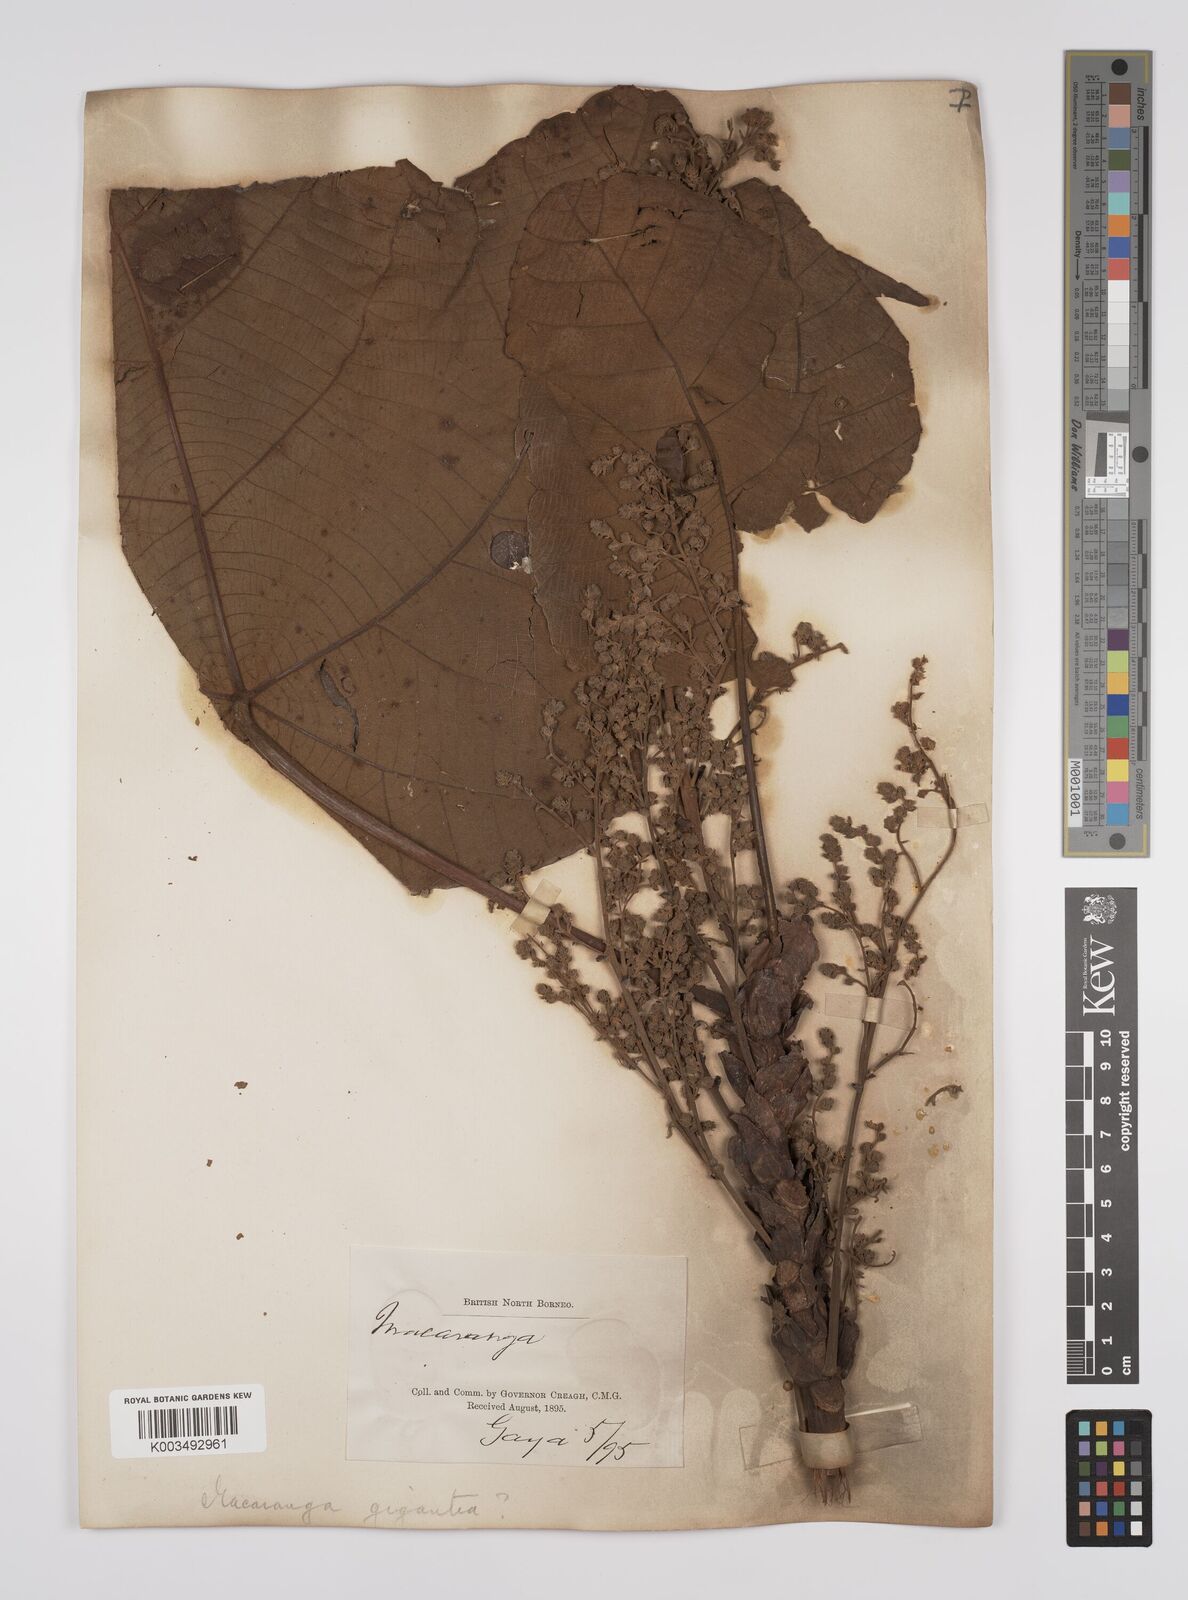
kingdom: Plantae
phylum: Tracheophyta
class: Magnoliopsida
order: Malpighiales
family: Euphorbiaceae
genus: Macaranga
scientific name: Macaranga gigantea
